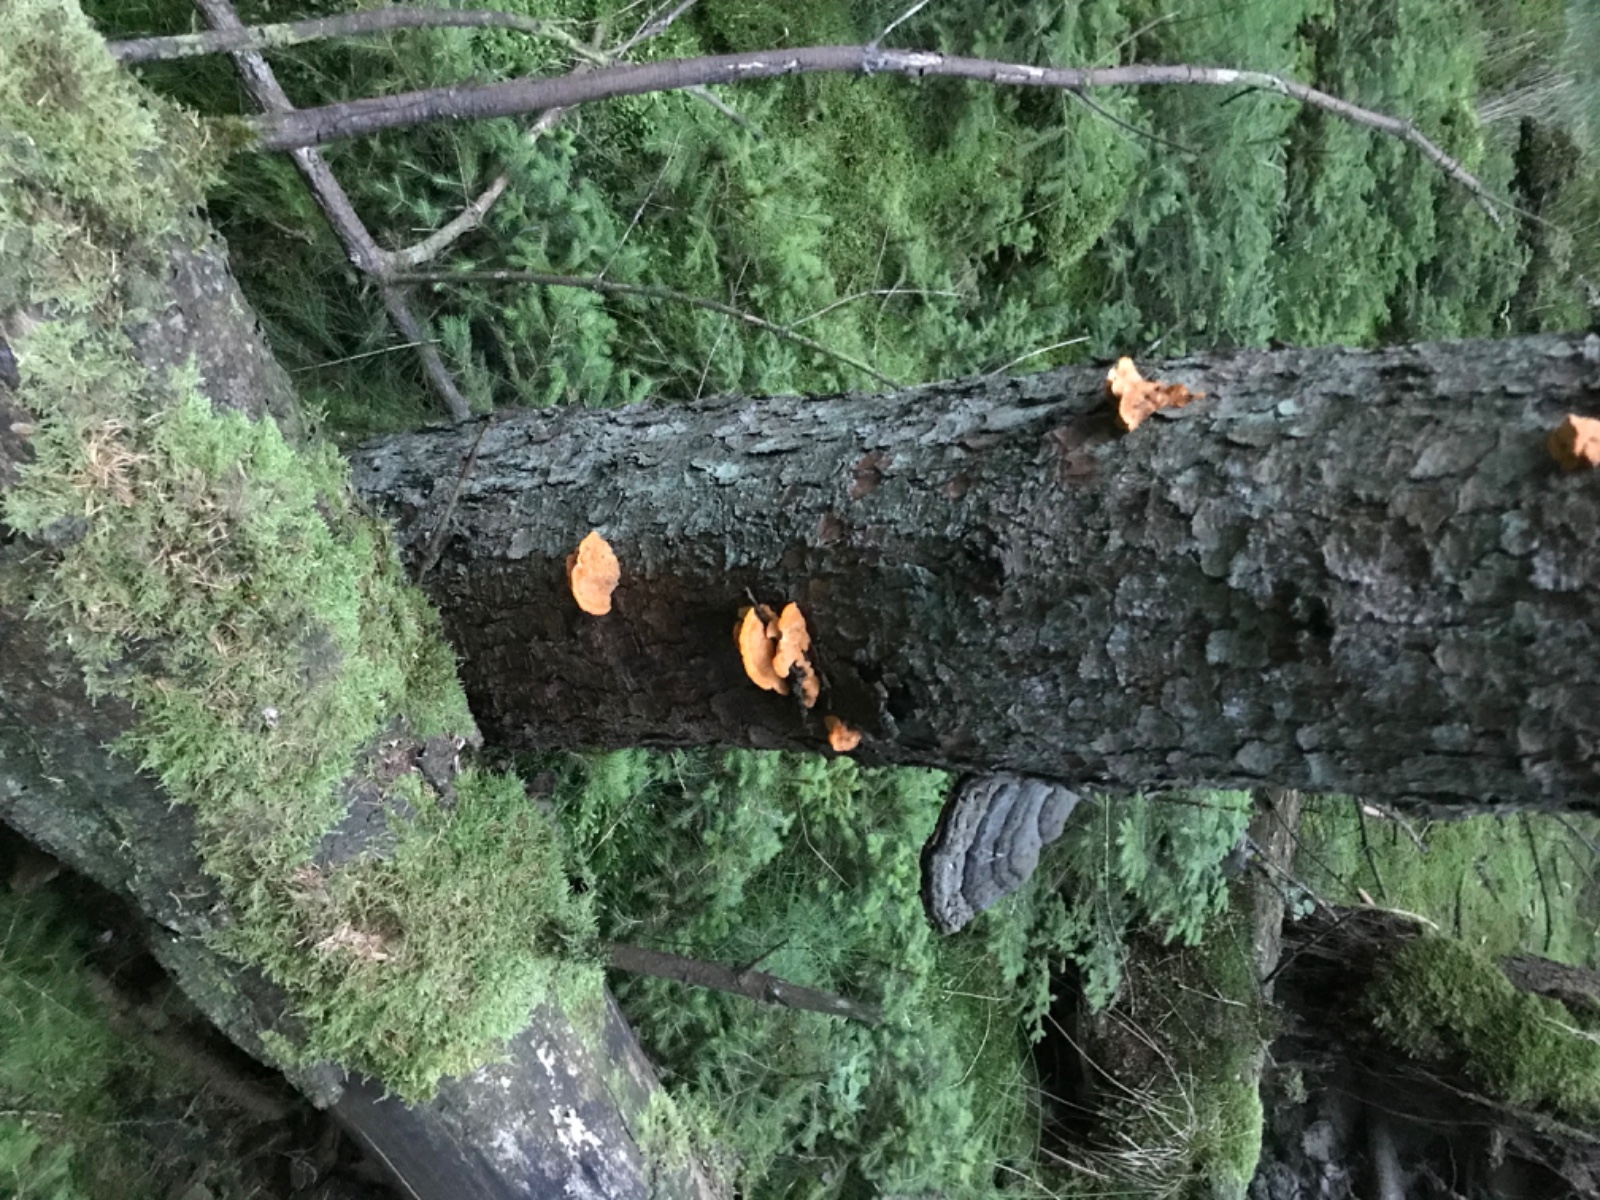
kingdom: Fungi
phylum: Basidiomycota
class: Agaricomycetes
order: Polyporales
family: Pycnoporellaceae
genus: Pycnoporellus
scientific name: Pycnoporellus fulgens
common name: flammeporesvamp
